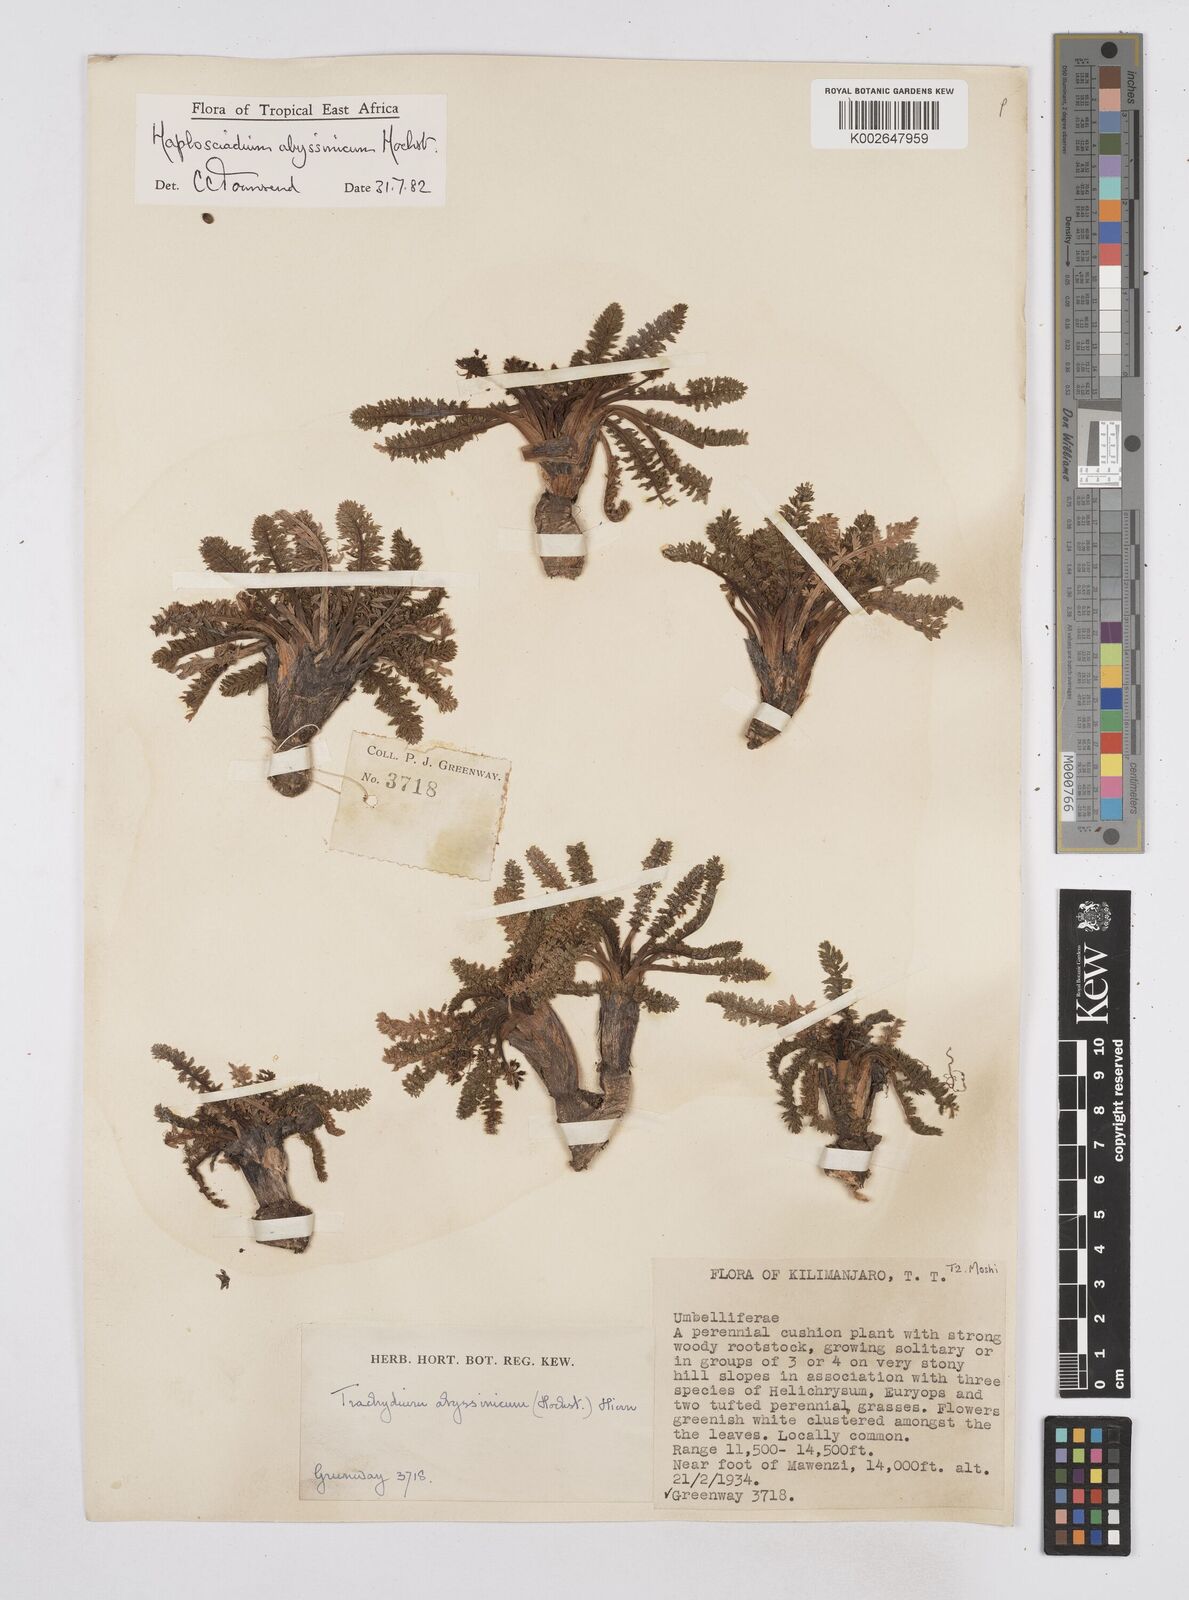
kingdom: Plantae
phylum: Tracheophyta
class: Magnoliopsida
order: Apiales
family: Apiaceae
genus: Haplosciadium
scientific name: Haplosciadium abyssinicum
